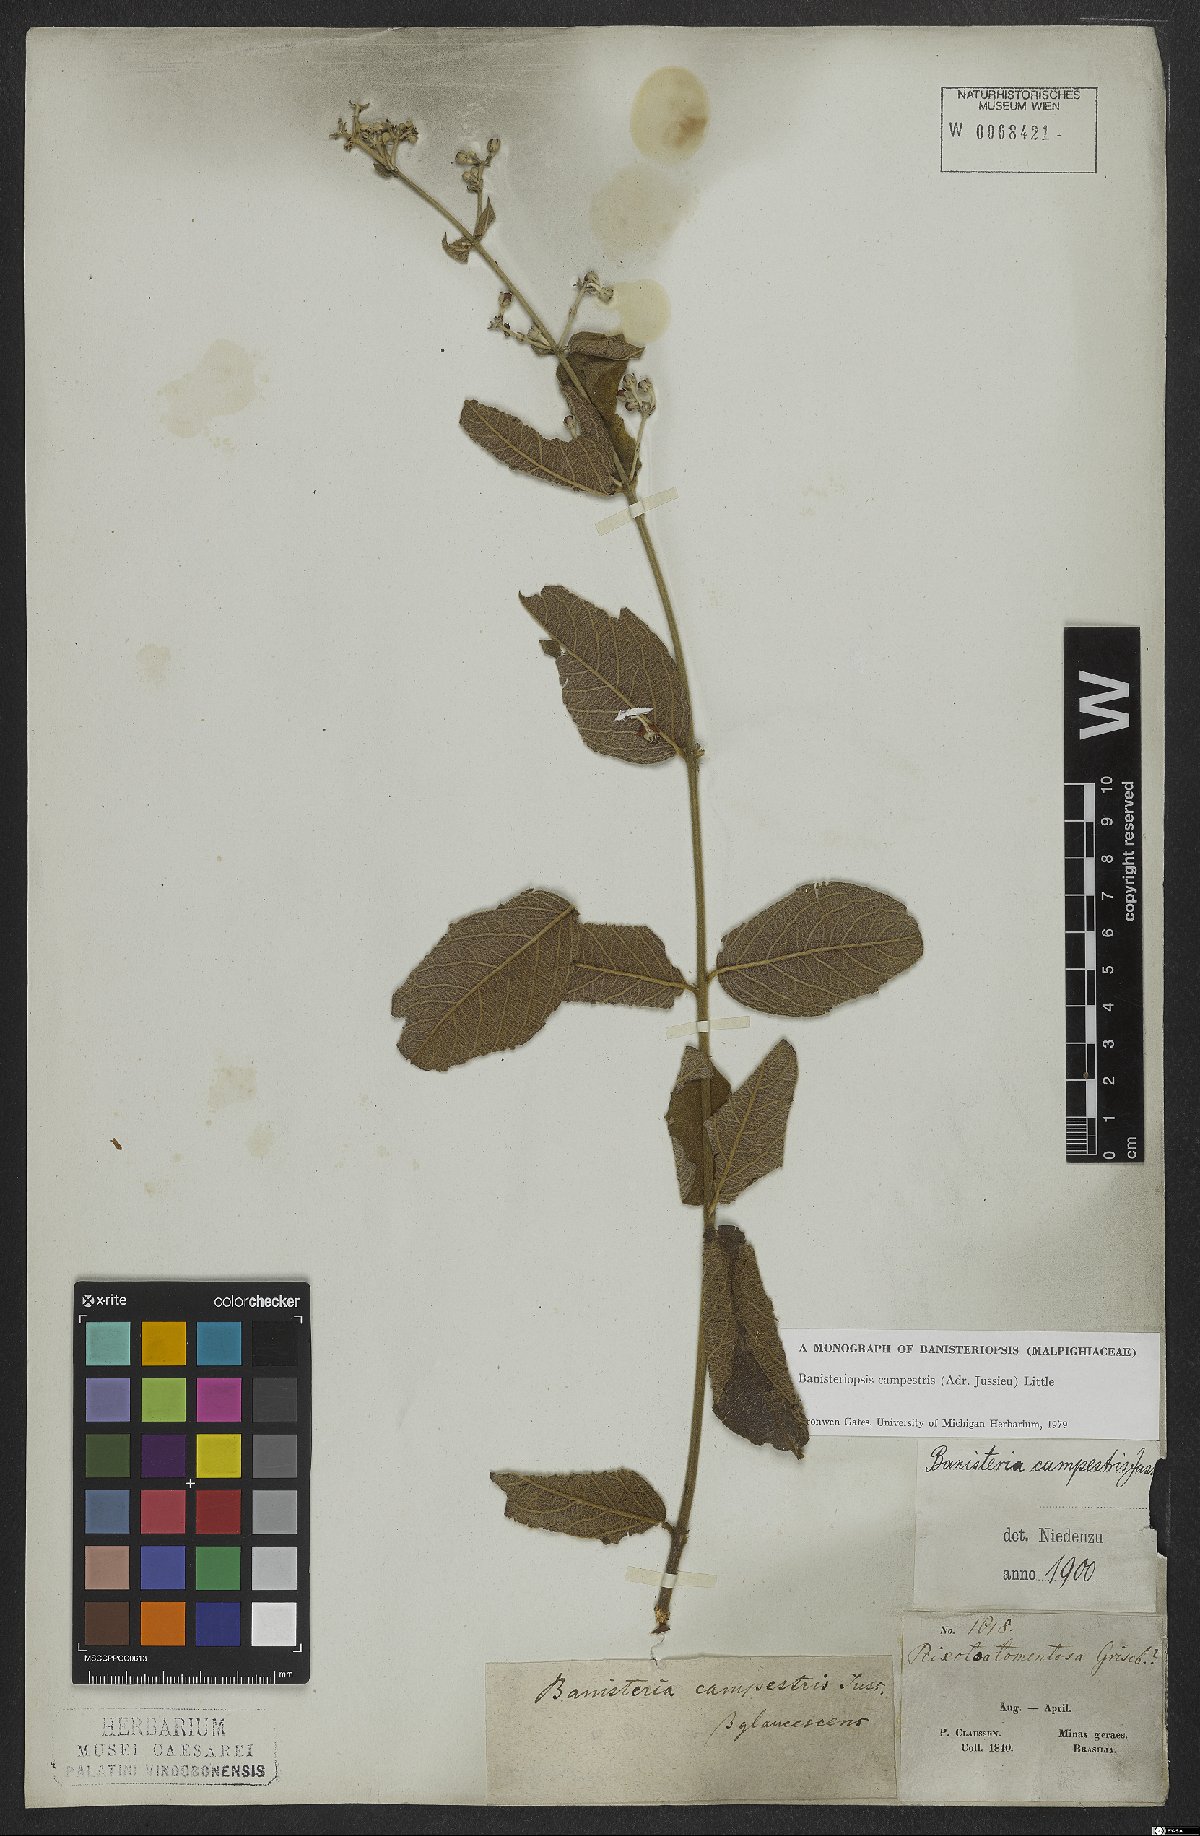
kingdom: Plantae
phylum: Tracheophyta
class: Magnoliopsida
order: Malpighiales
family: Malpighiaceae
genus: Banisteriopsis
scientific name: Banisteriopsis campestris
